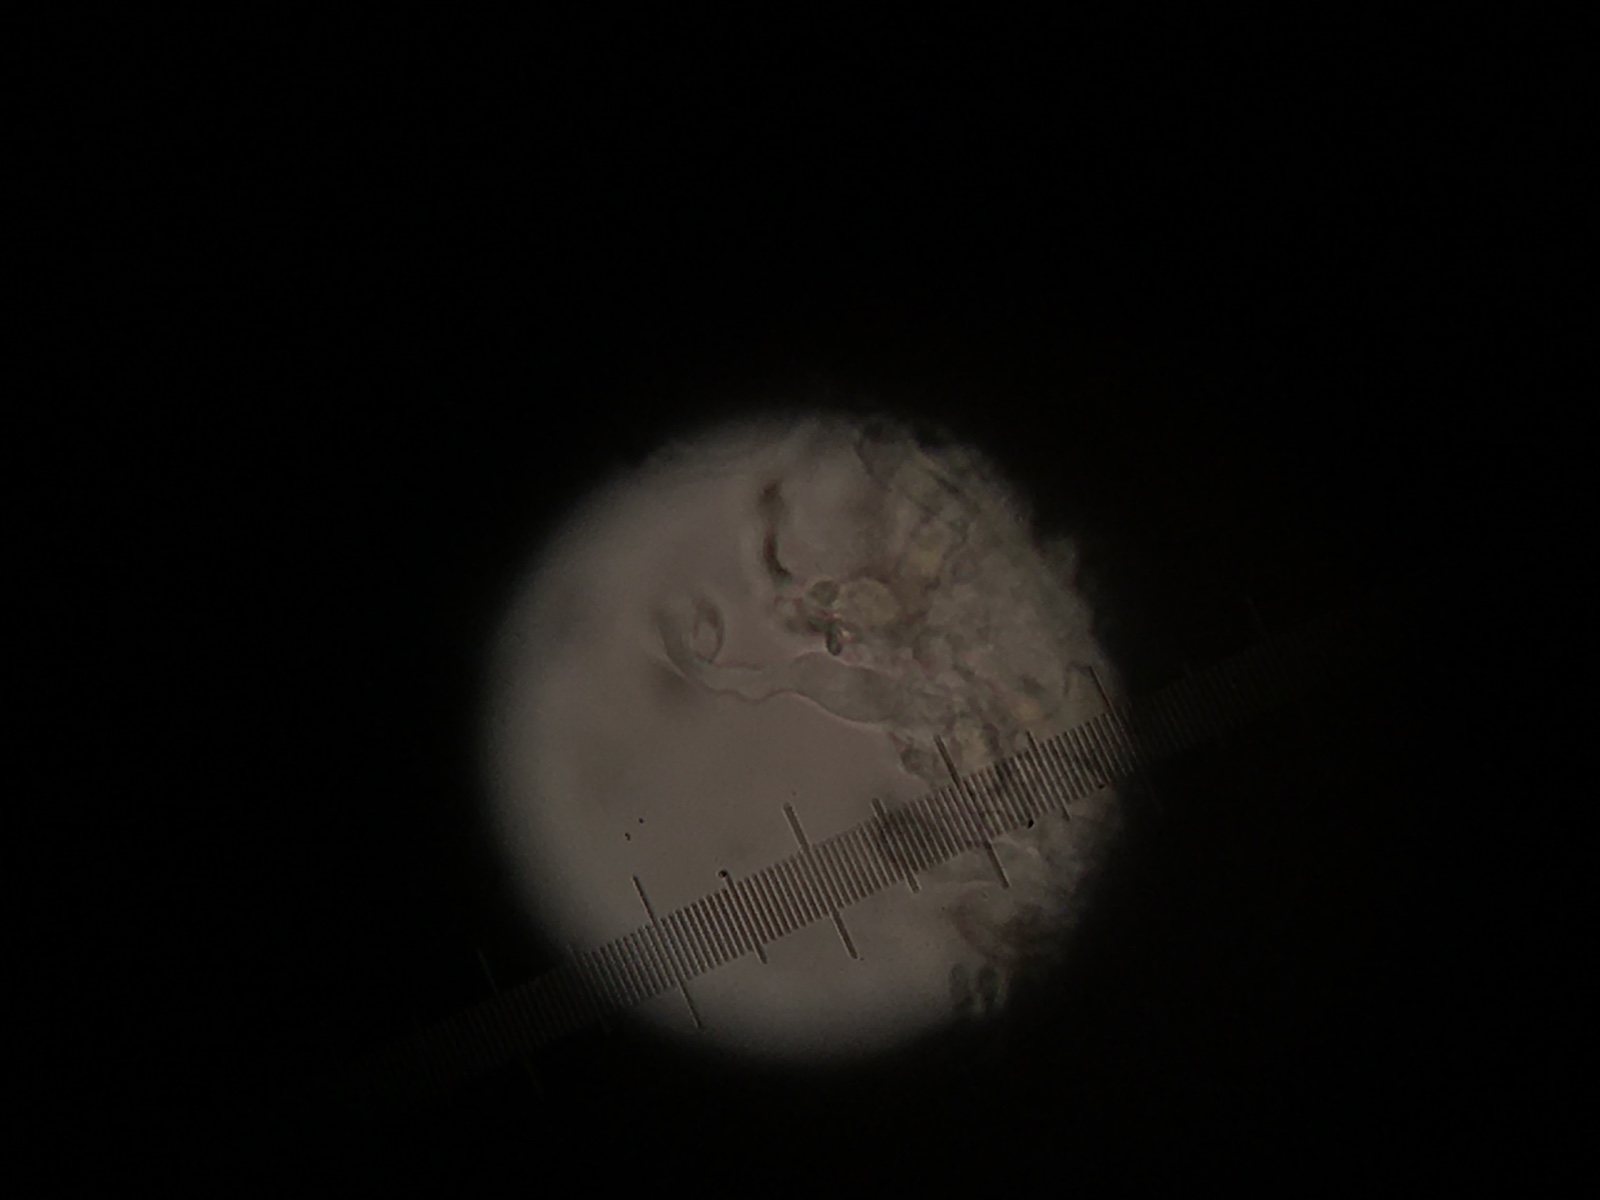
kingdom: Fungi
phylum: Basidiomycota
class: Agaricomycetes
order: Agaricales
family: Crepidotaceae
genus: Crepidotus
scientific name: Crepidotus epibryus
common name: førne-muslingesvamp
